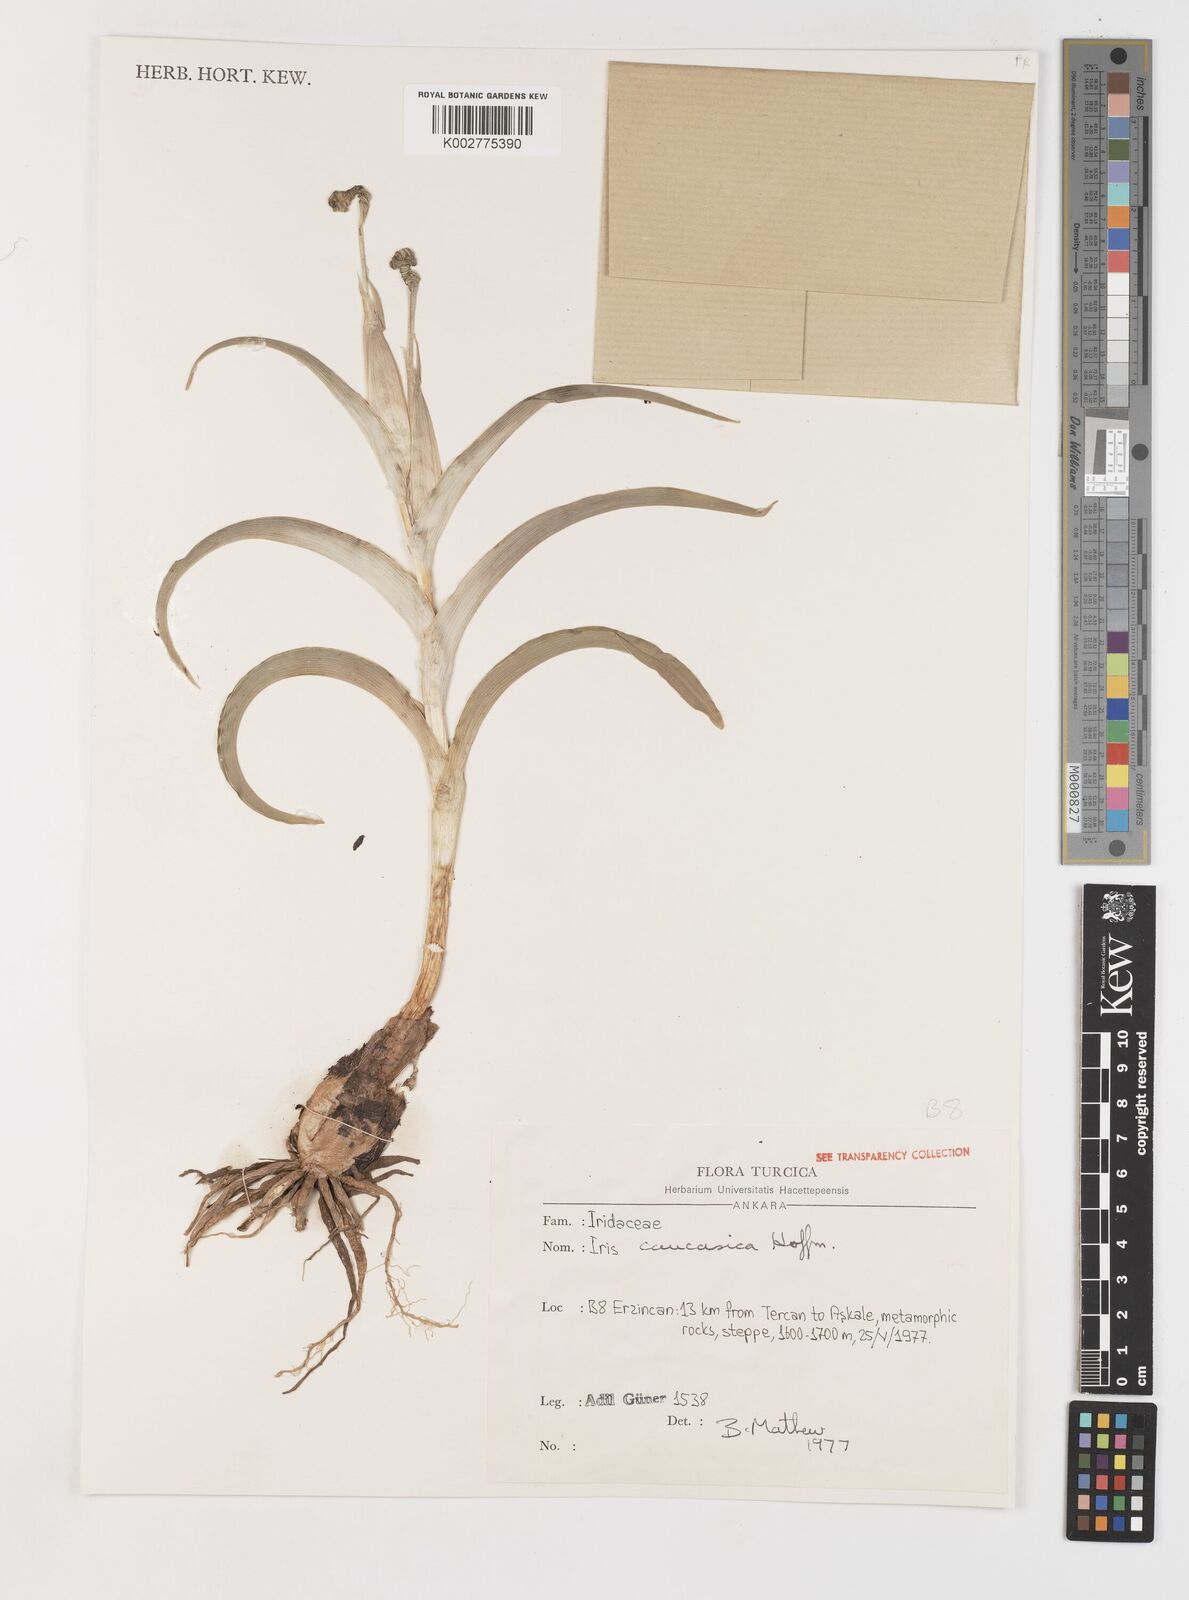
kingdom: Plantae
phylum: Tracheophyta
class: Liliopsida
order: Asparagales
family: Iridaceae
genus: Iris
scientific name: Iris caucasica
